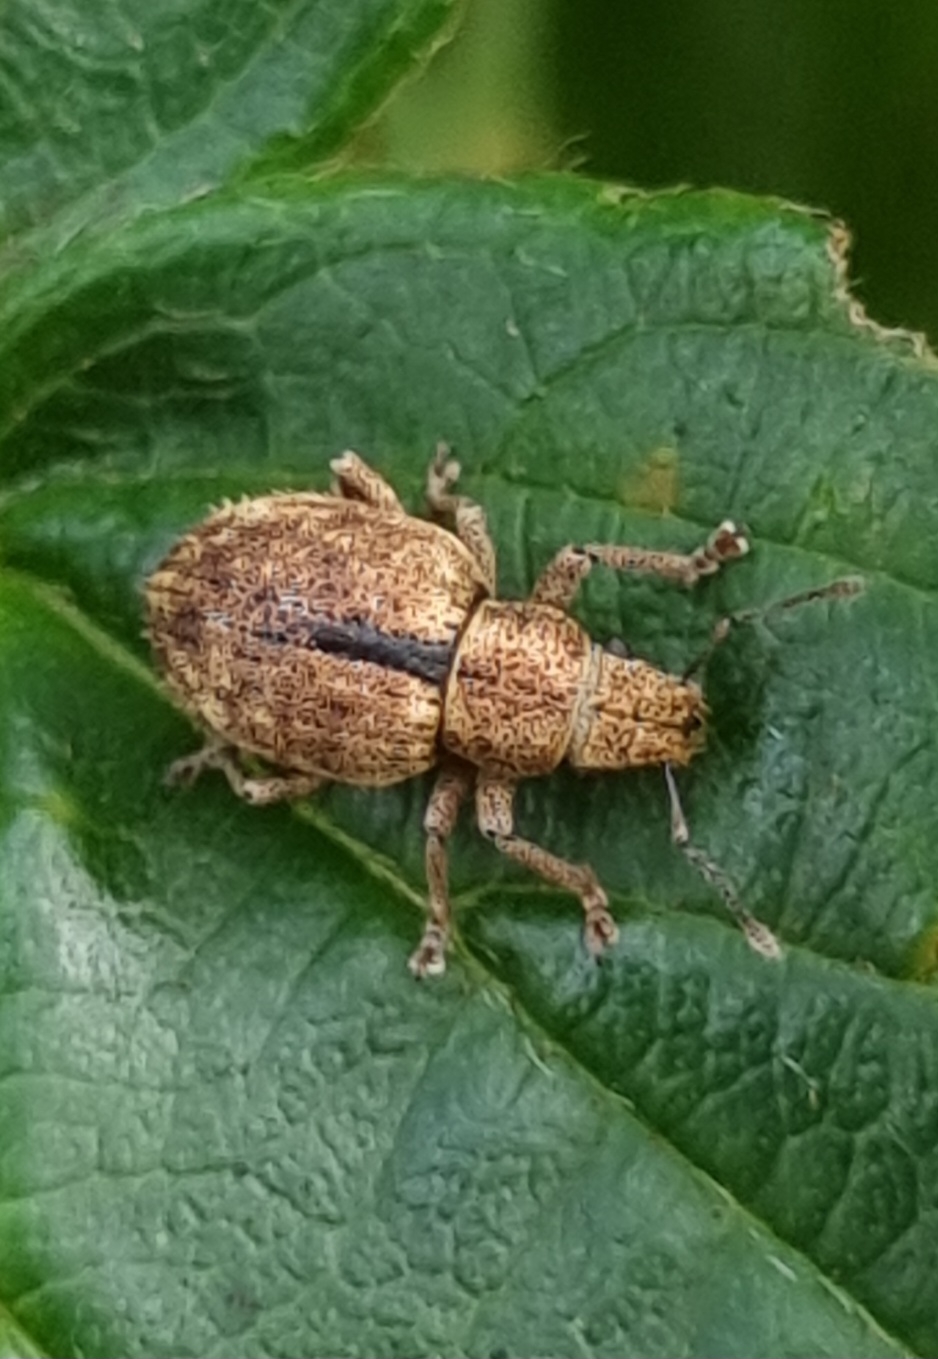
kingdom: Animalia
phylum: Arthropoda
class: Insecta
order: Coleoptera
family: Curculionidae
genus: Strophosoma
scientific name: Strophosoma melanogrammum
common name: Stribet gråsnude
